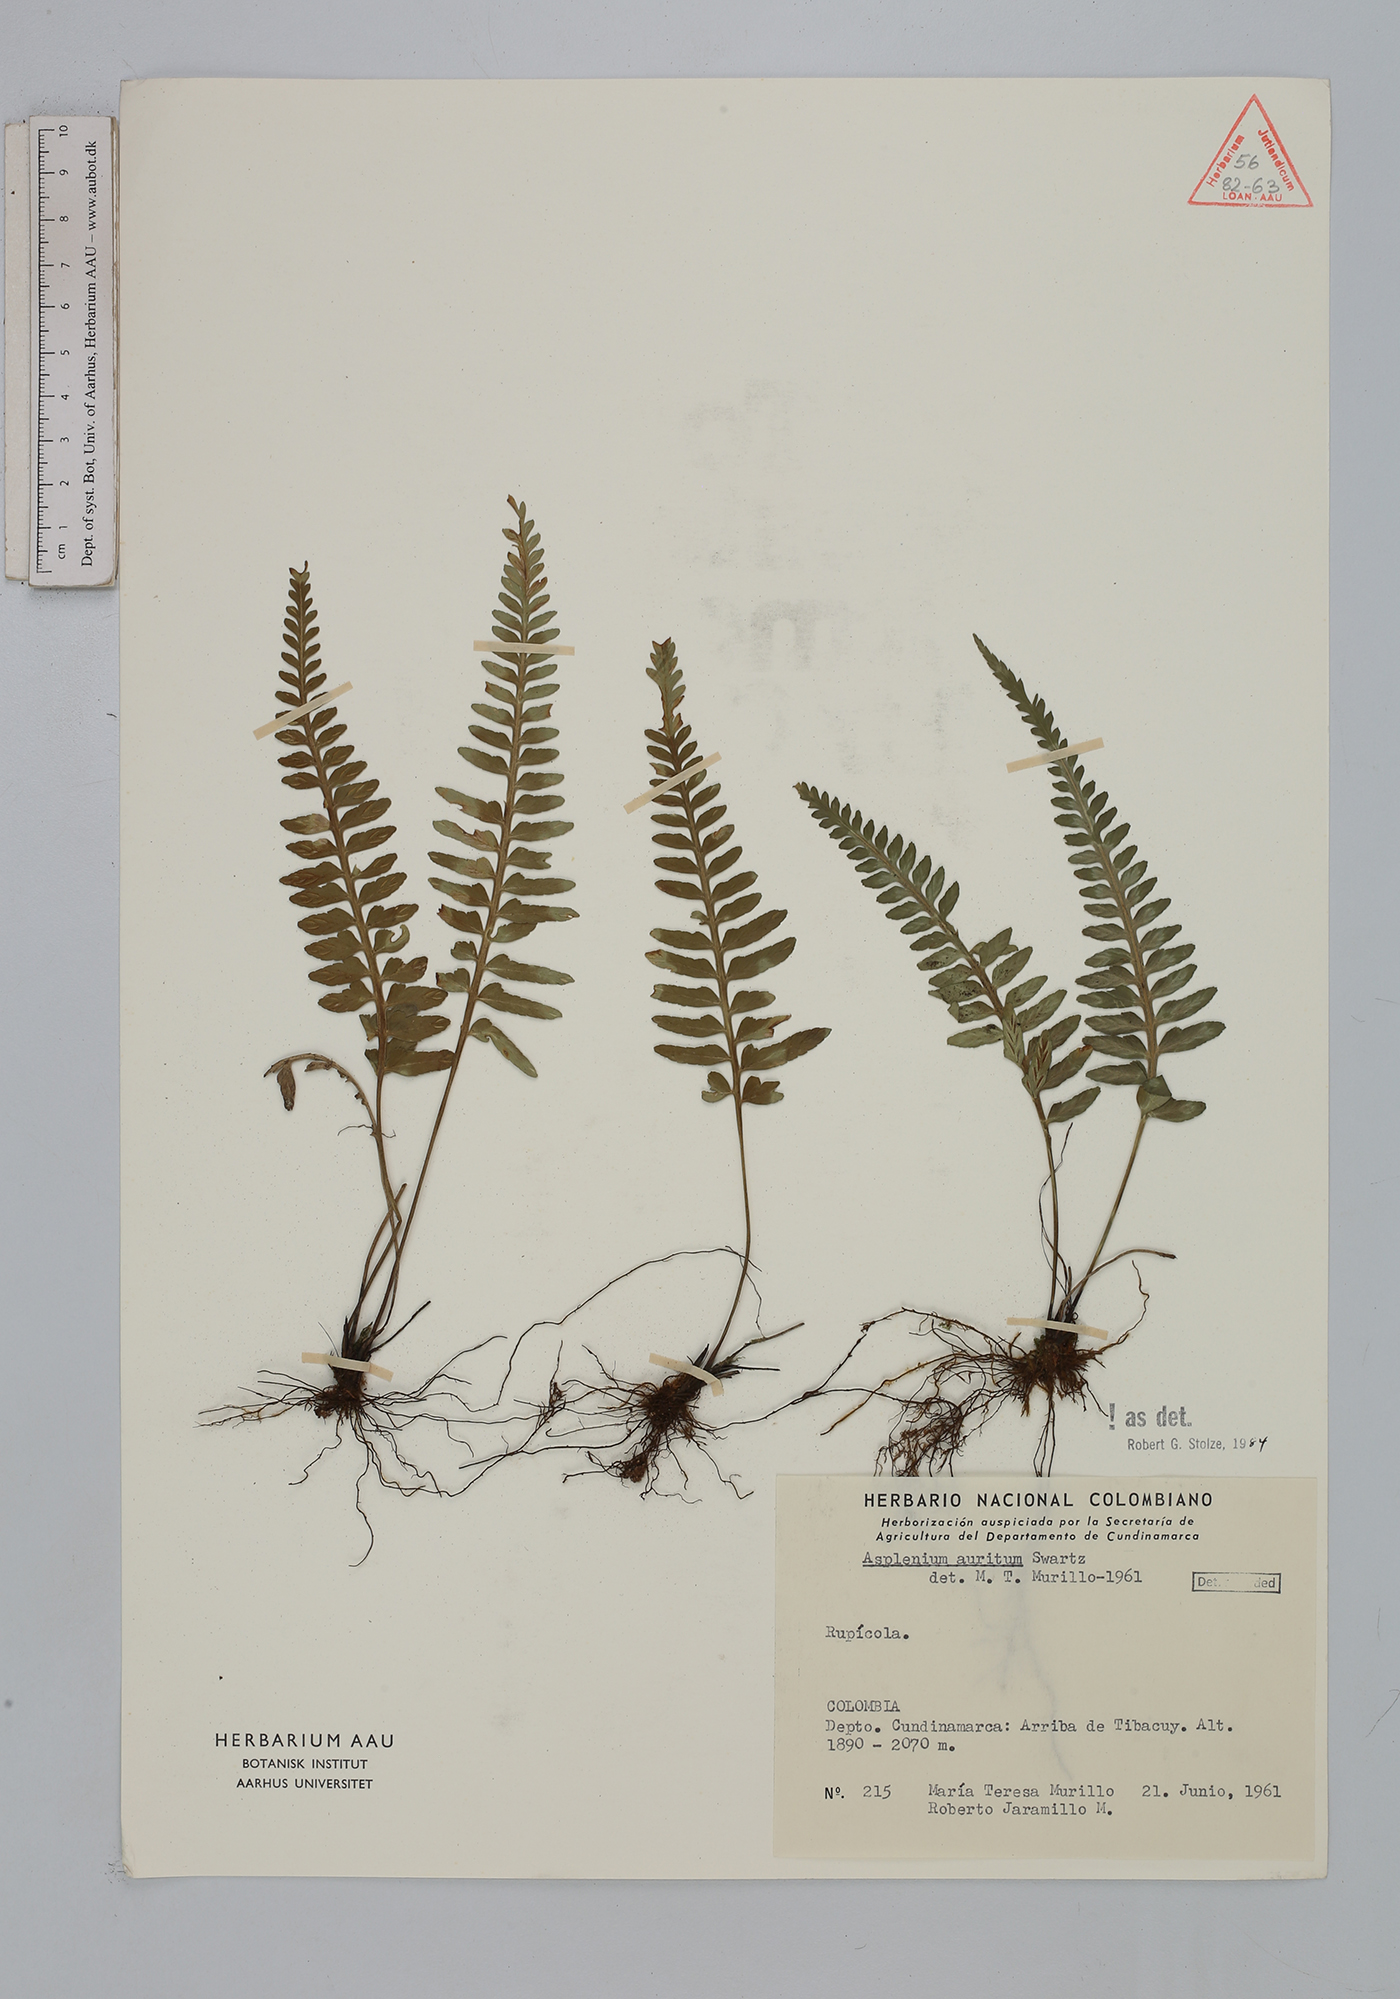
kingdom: Plantae
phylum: Tracheophyta
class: Polypodiopsida
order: Polypodiales
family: Aspleniaceae
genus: Asplenium
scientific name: Asplenium auritum
